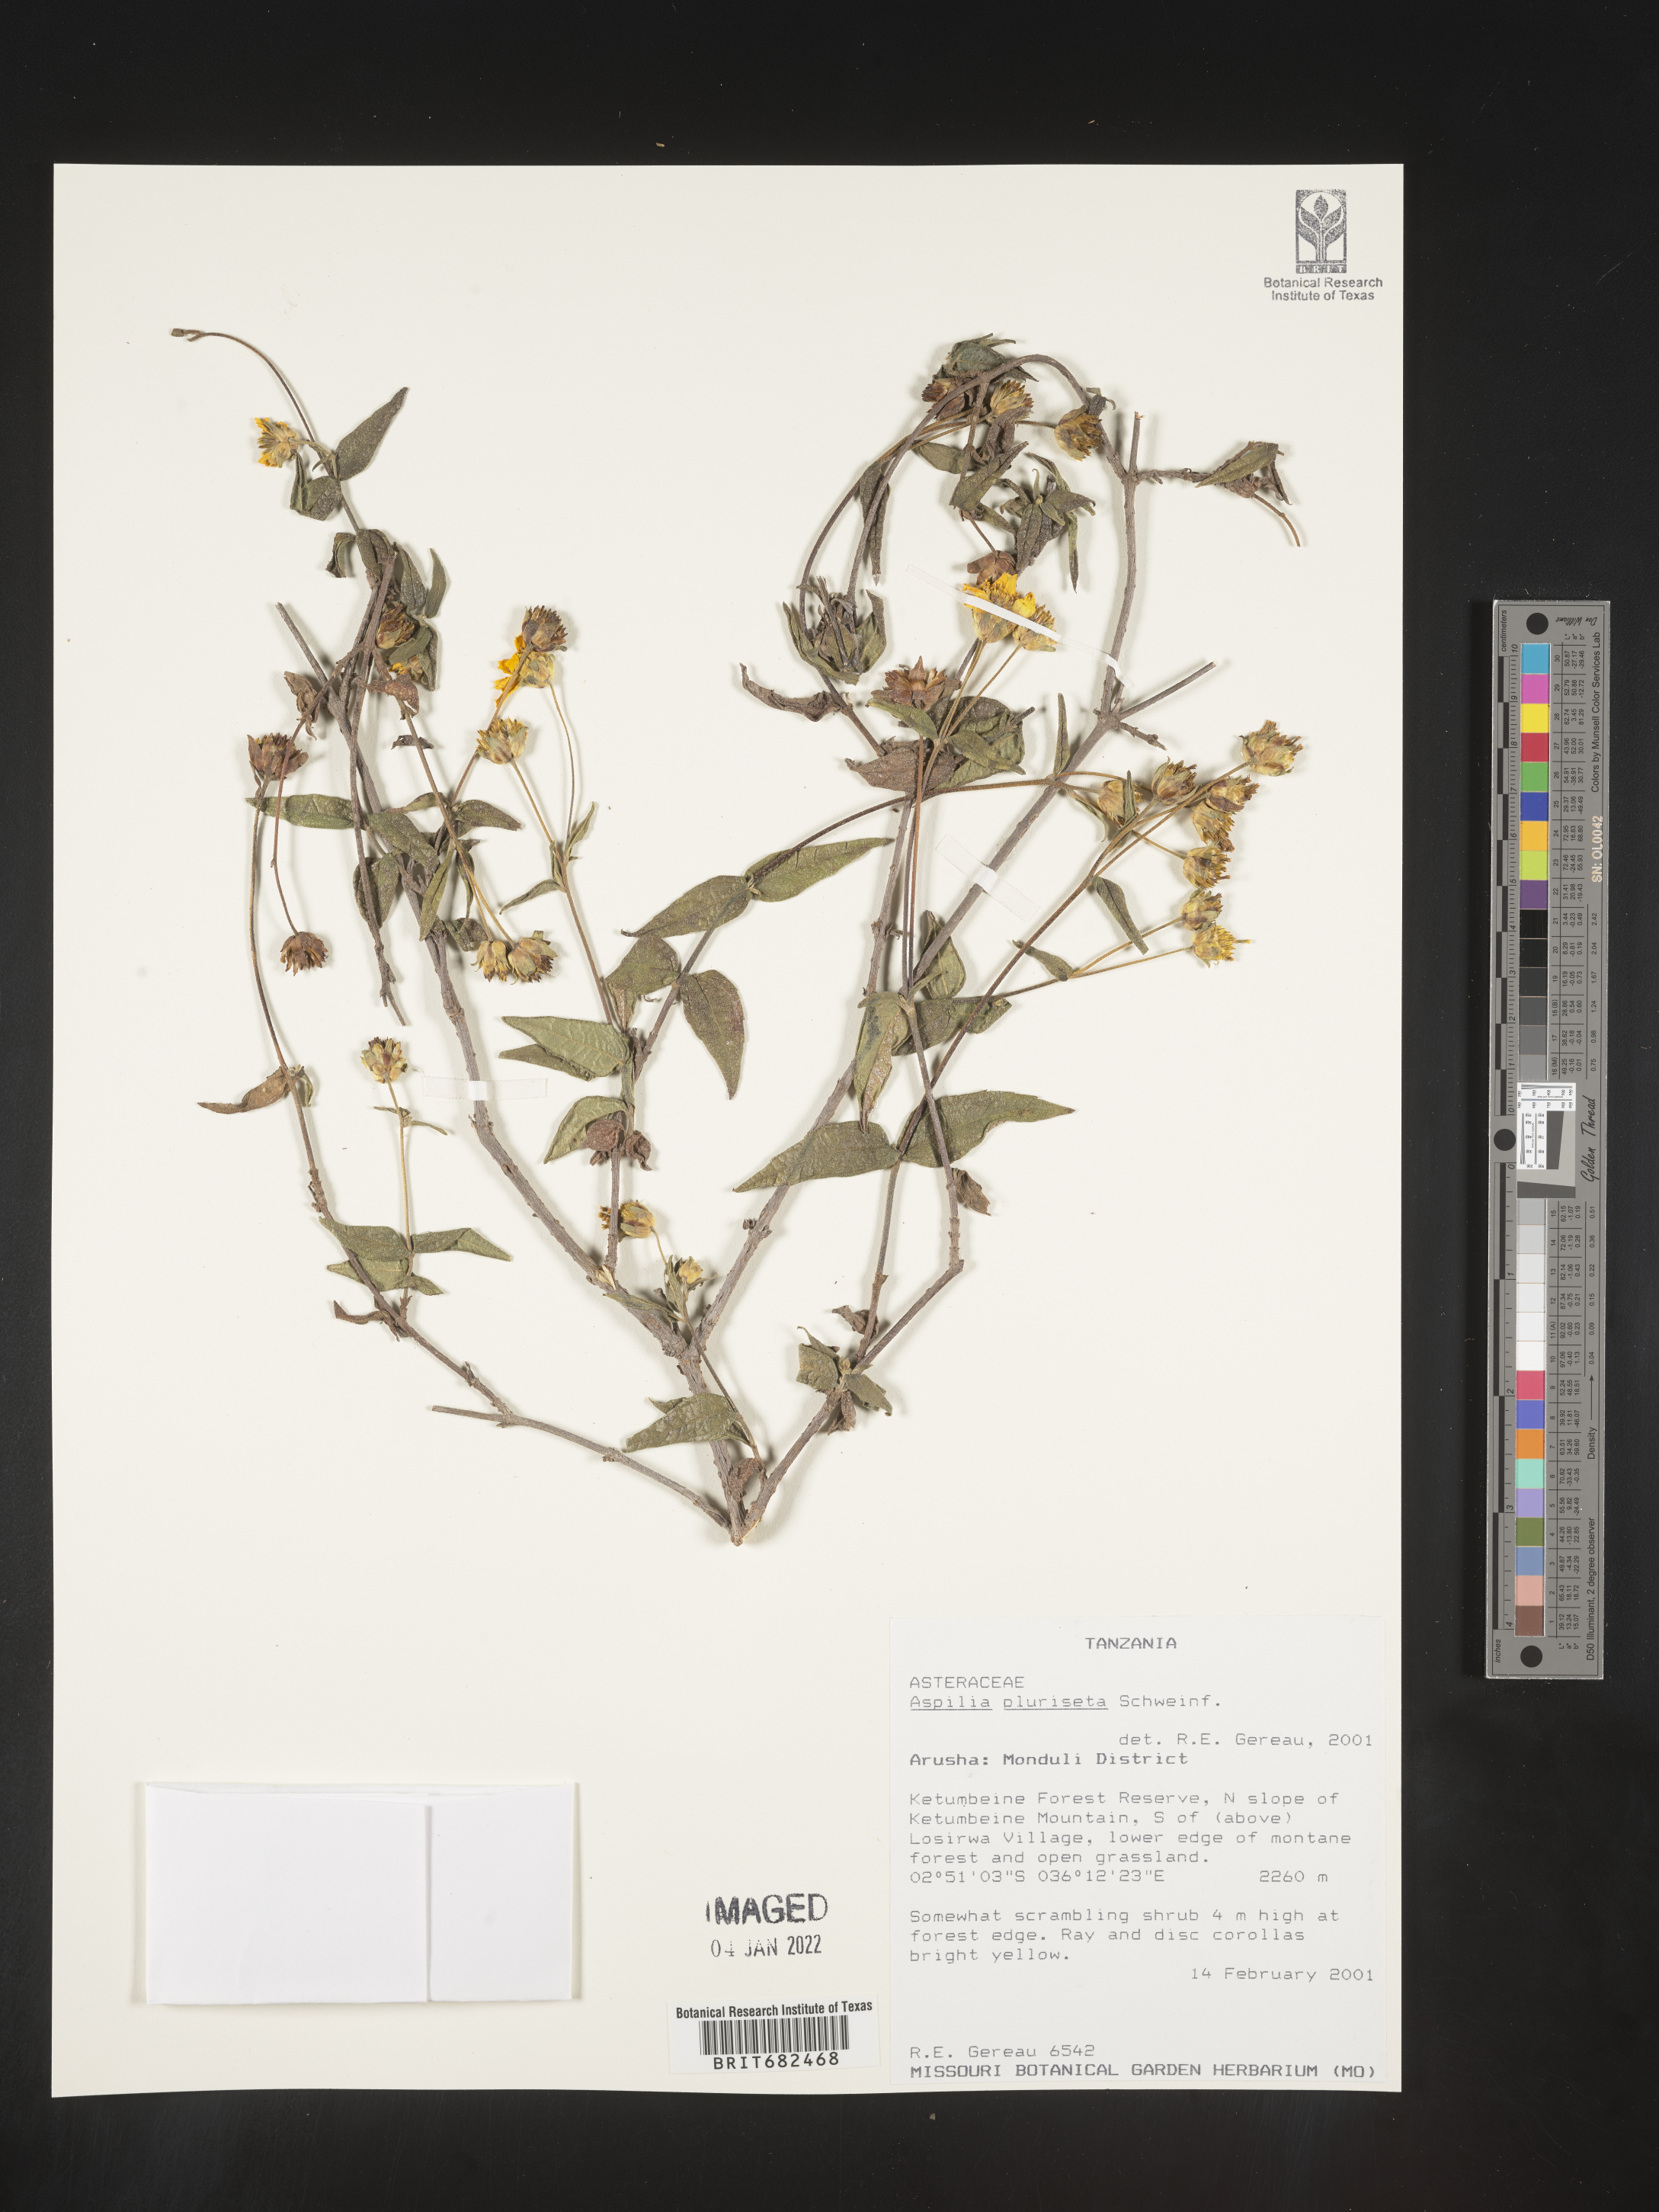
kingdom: Plantae
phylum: Tracheophyta
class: Magnoliopsida
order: Asterales
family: Asteraceae
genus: Aspilia
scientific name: Aspilia
